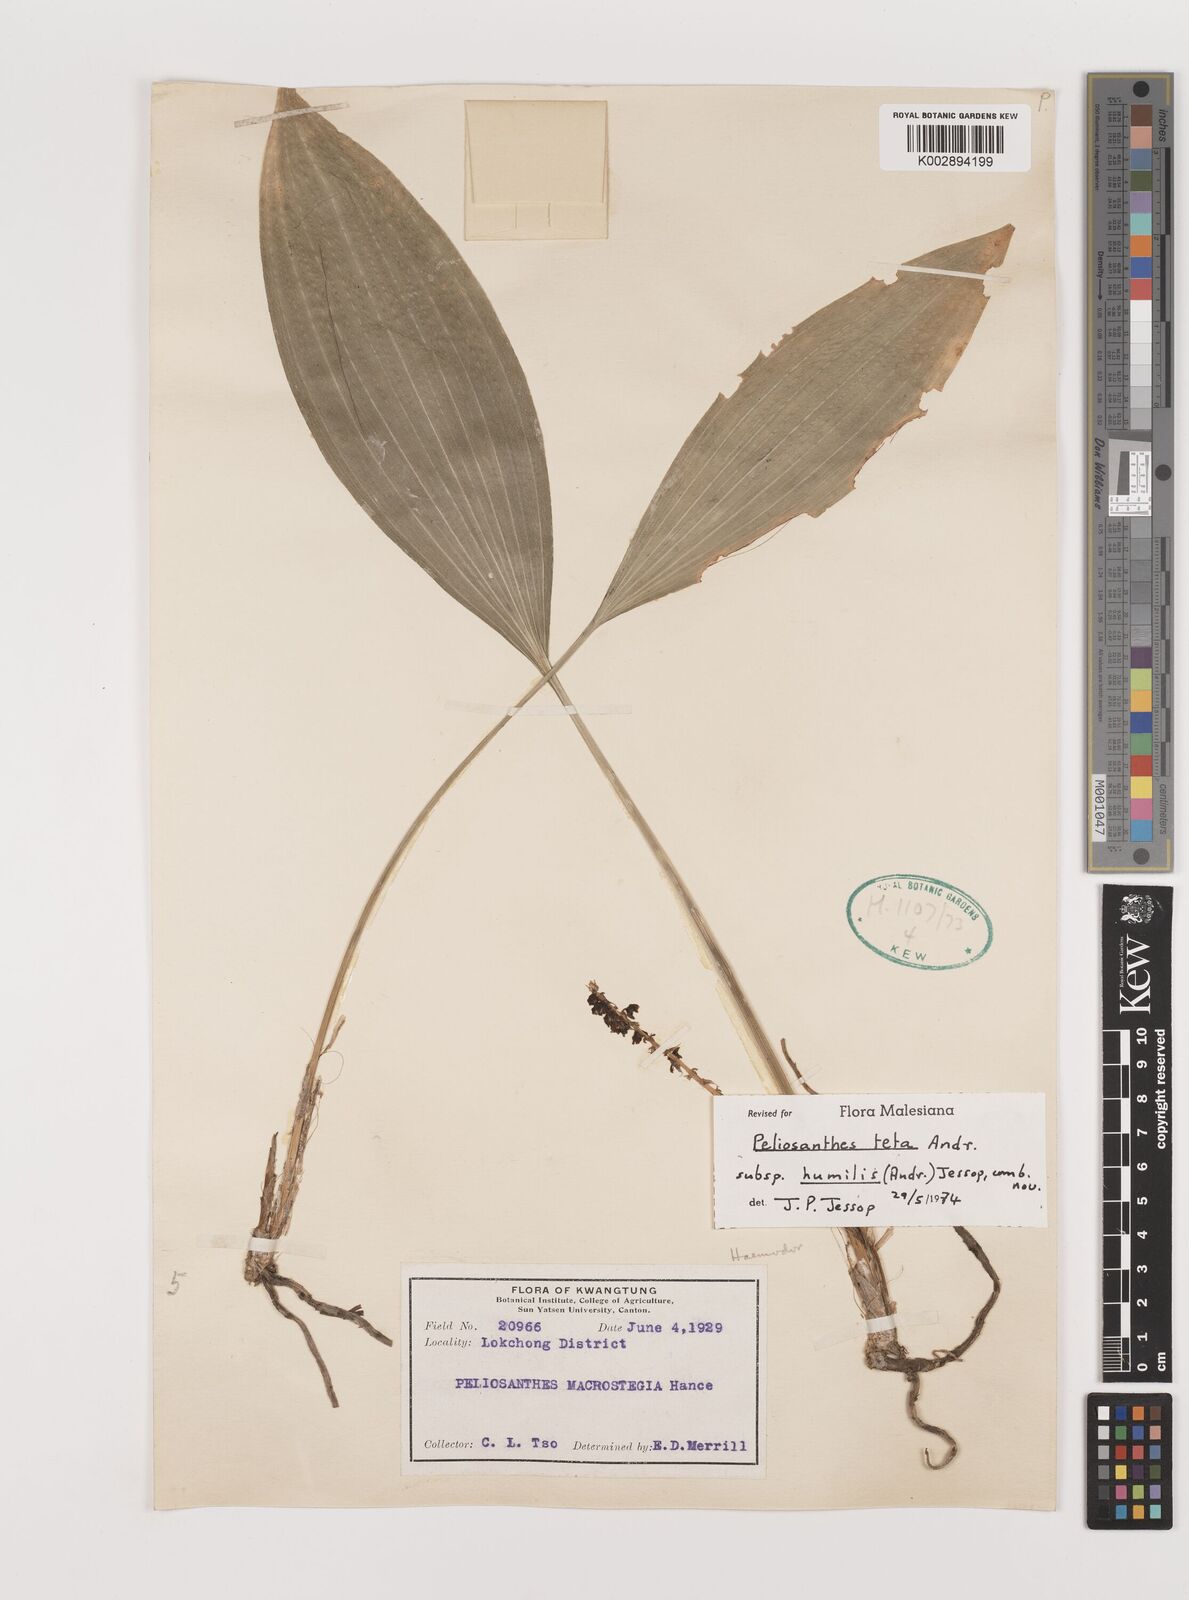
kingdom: Plantae
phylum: Tracheophyta
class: Liliopsida
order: Asparagales
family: Asparagaceae
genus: Peliosanthes
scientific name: Peliosanthes teta
